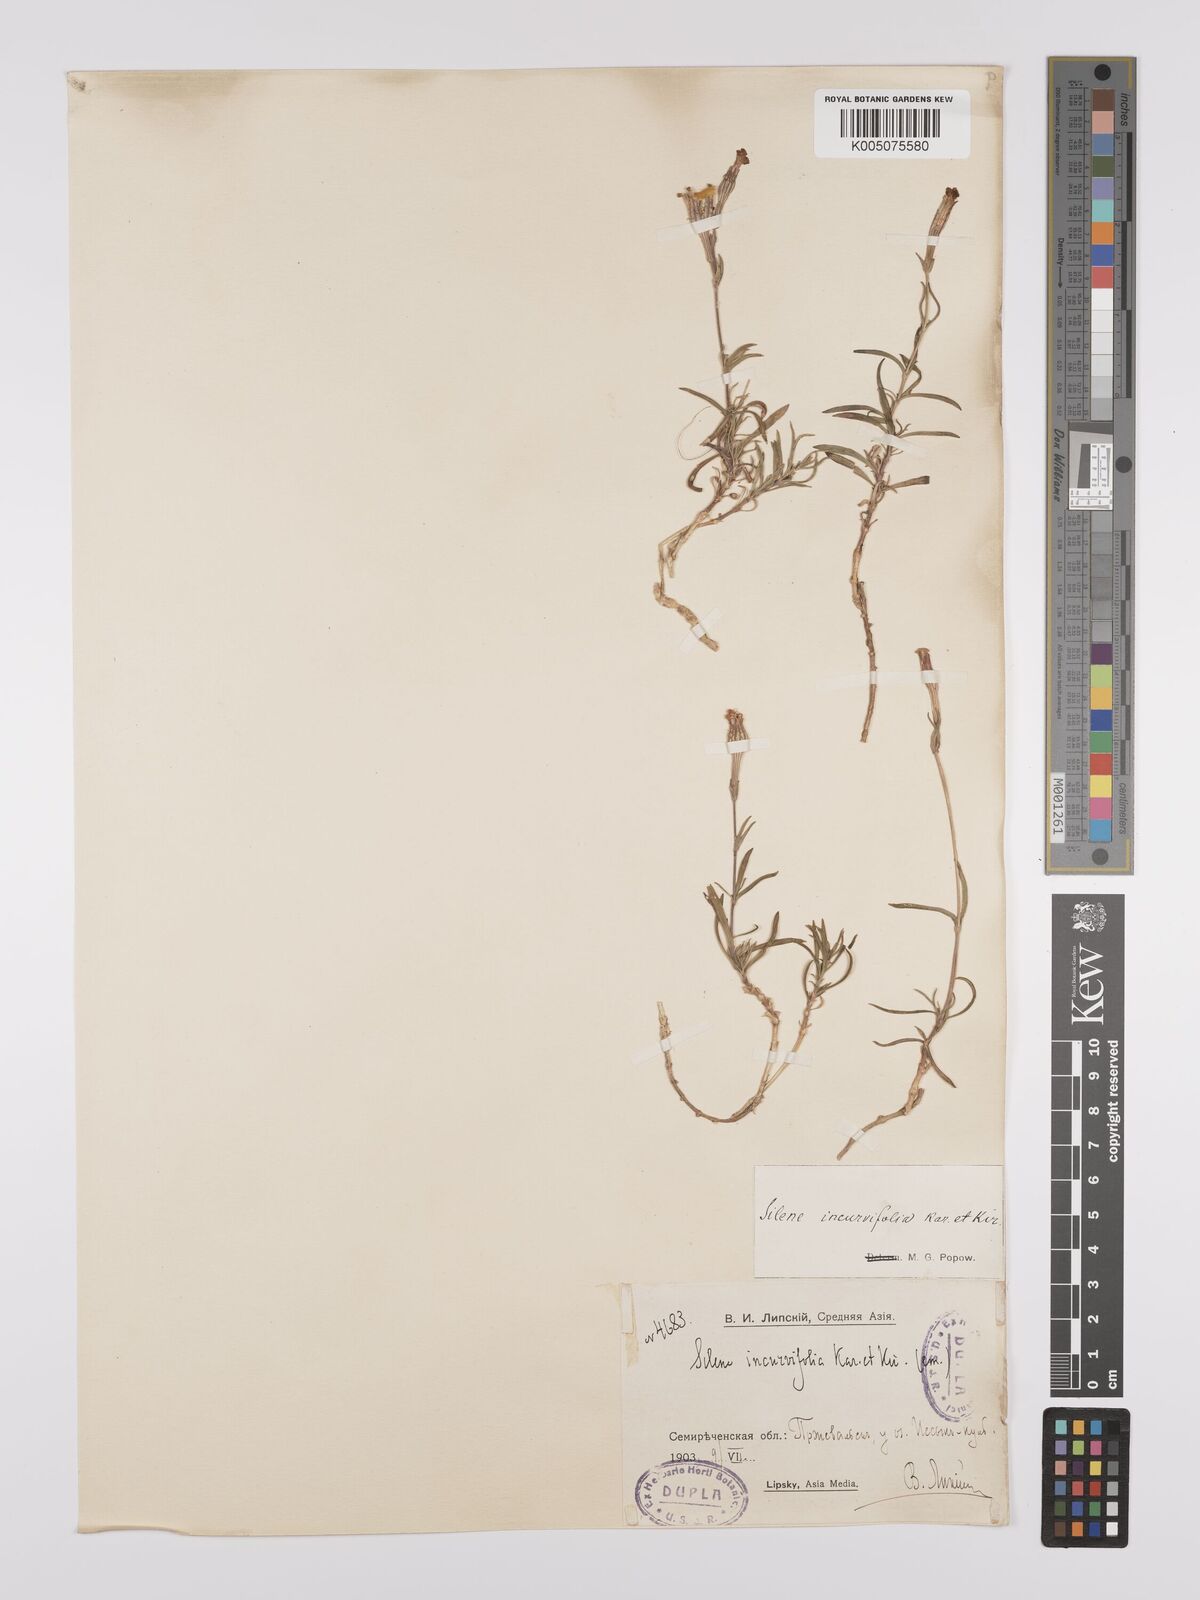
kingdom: Plantae
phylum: Tracheophyta
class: Magnoliopsida
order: Caryophyllales
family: Caryophyllaceae
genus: Silene
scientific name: Silene
